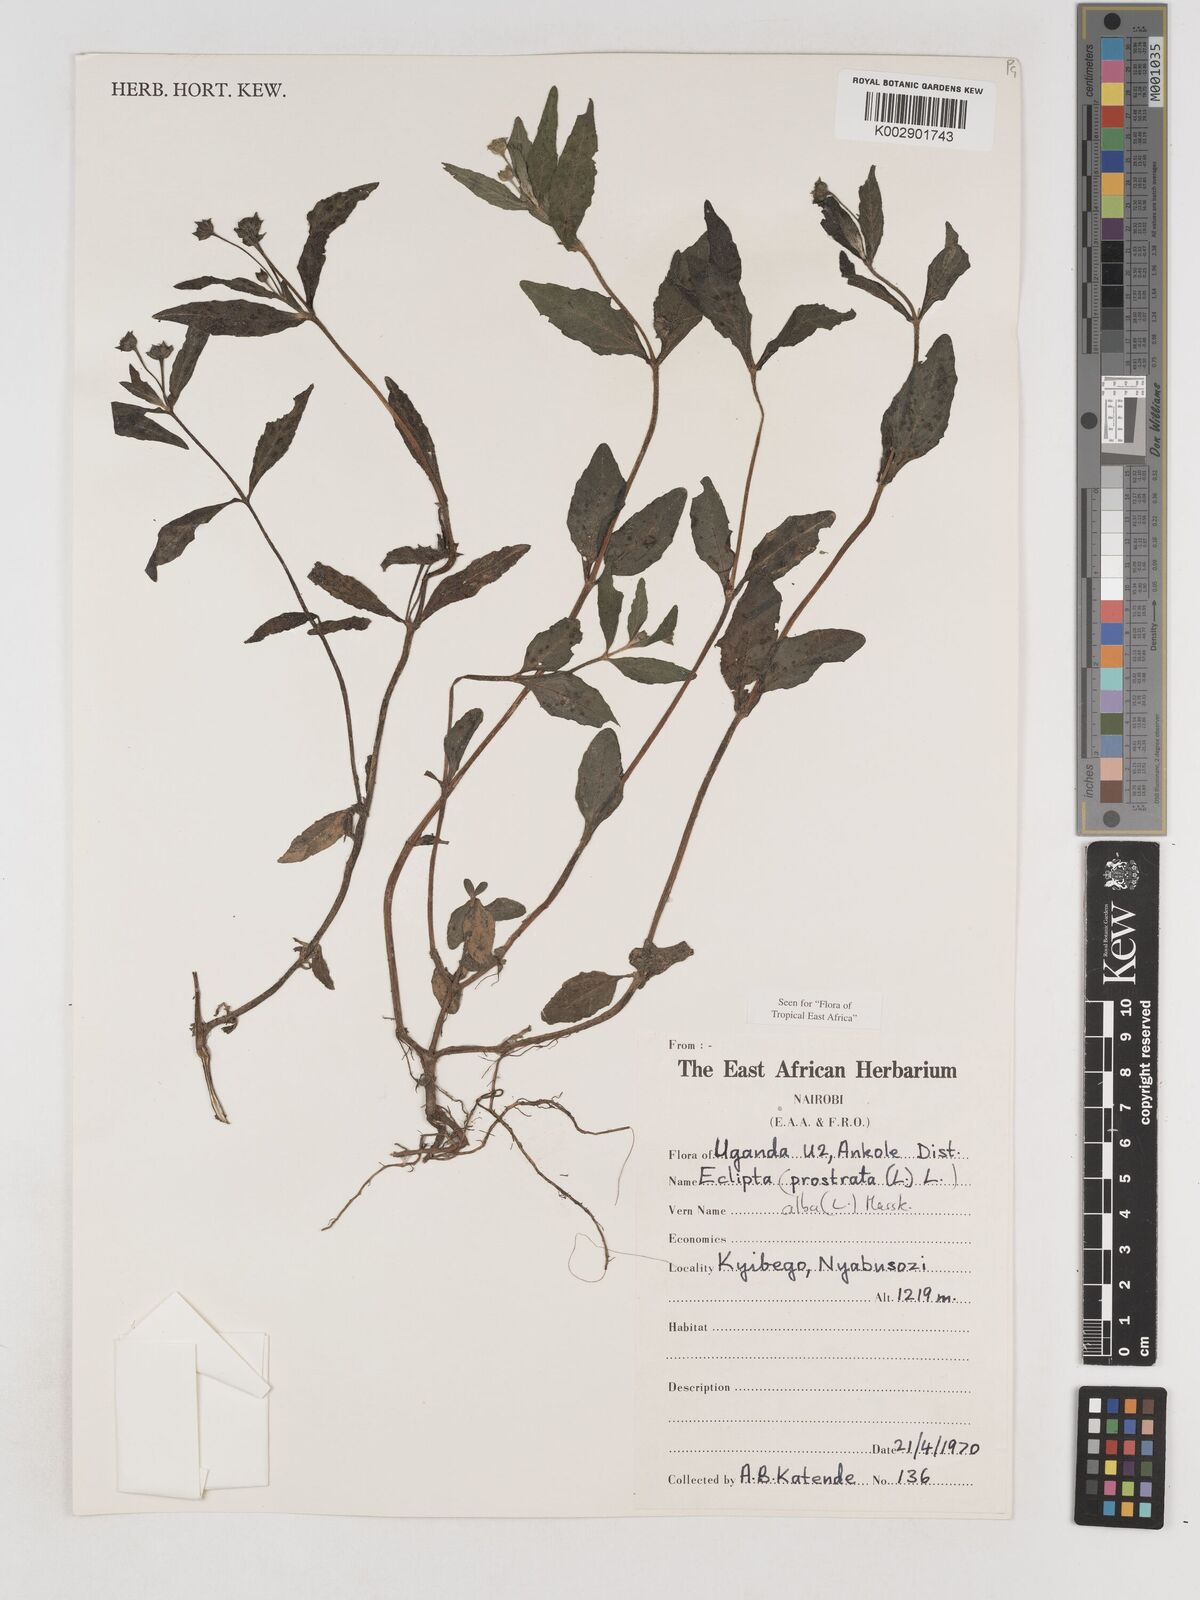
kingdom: Plantae
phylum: Tracheophyta
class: Magnoliopsida
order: Asterales
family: Asteraceae
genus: Eclipta
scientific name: Eclipta prostrata
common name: False daisy
